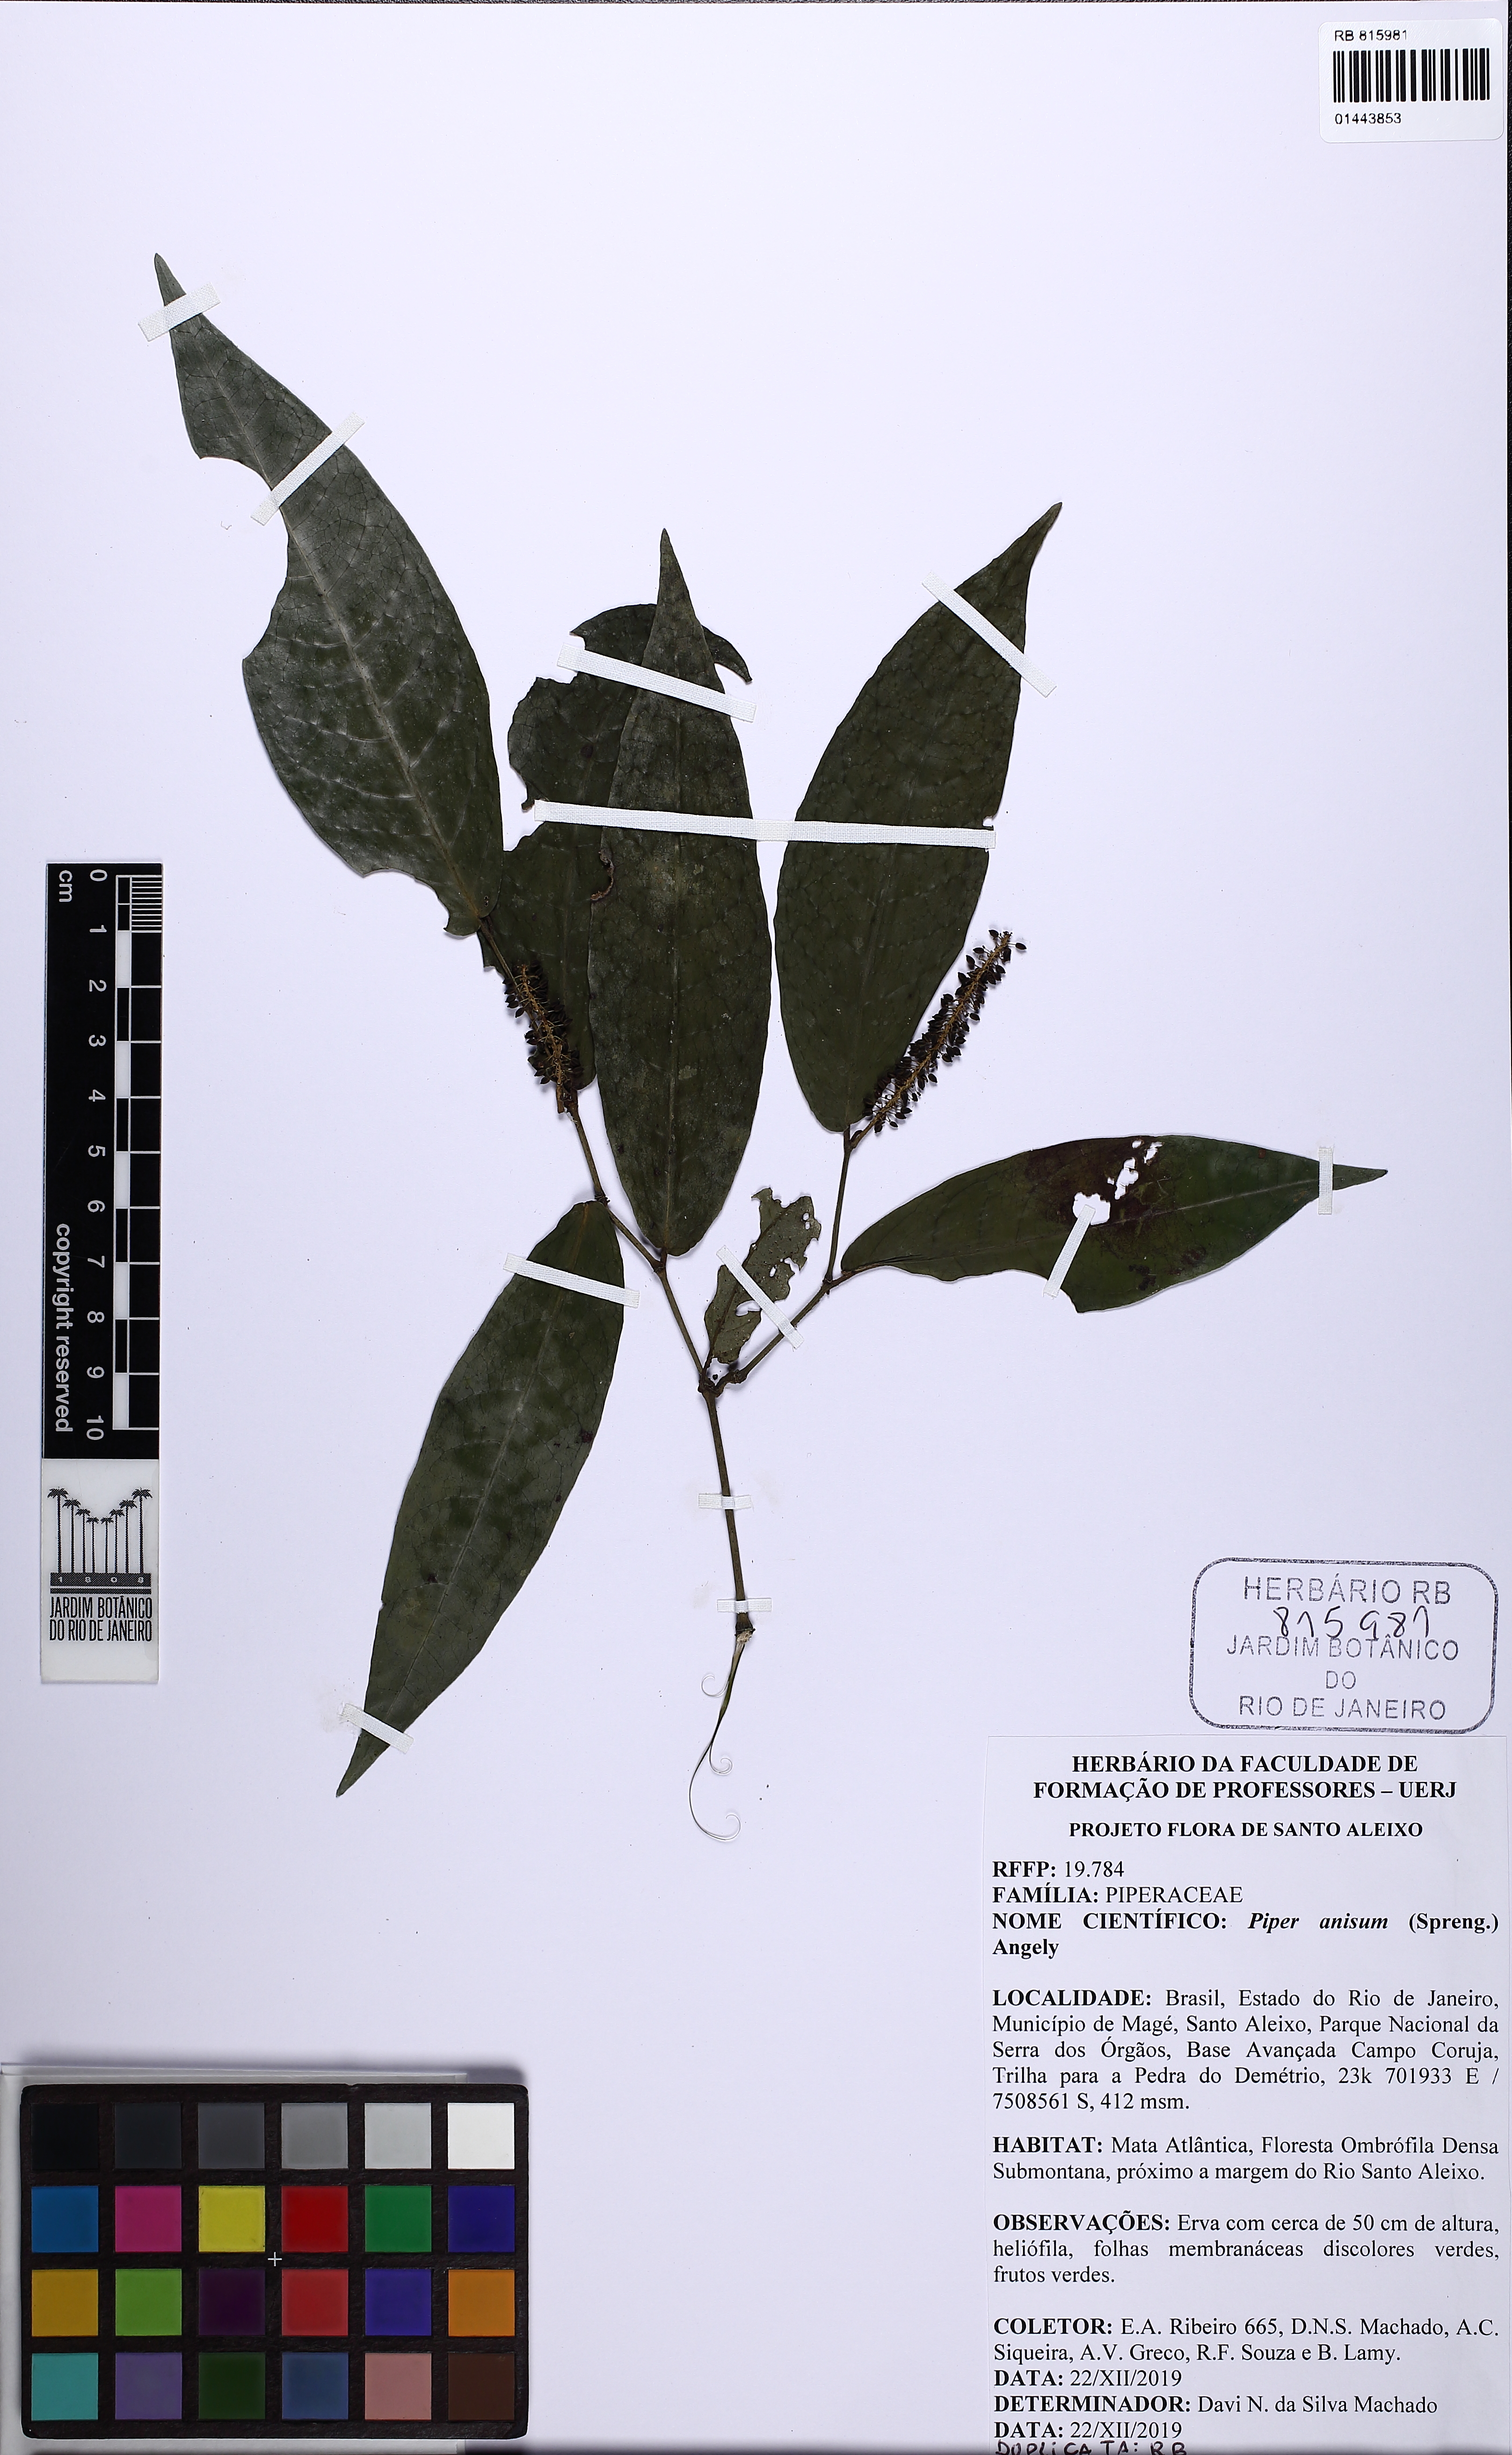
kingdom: Plantae
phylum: Tracheophyta
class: Magnoliopsida
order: Piperales
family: Piperaceae
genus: Piper
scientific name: Piper anisum
